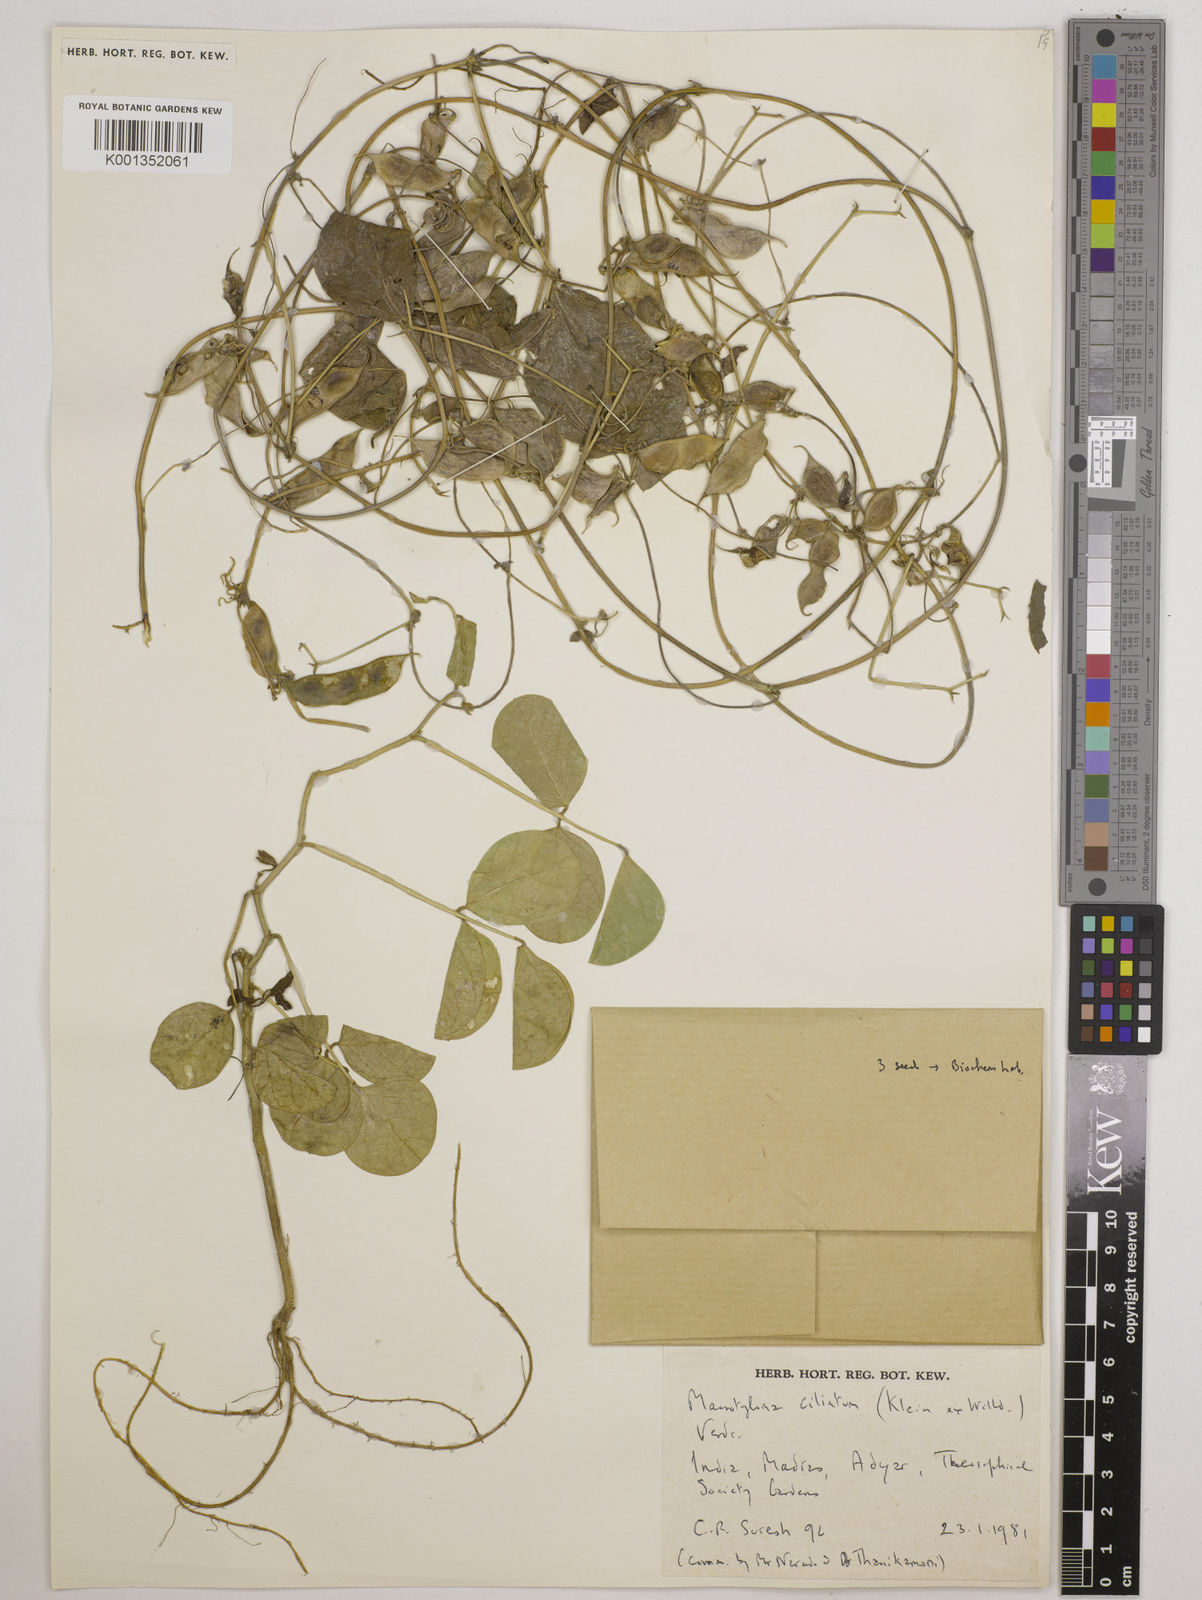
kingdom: Plantae
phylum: Tracheophyta
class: Magnoliopsida
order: Fabales
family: Fabaceae
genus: Macrotyloma
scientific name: Macrotyloma ciliatum
